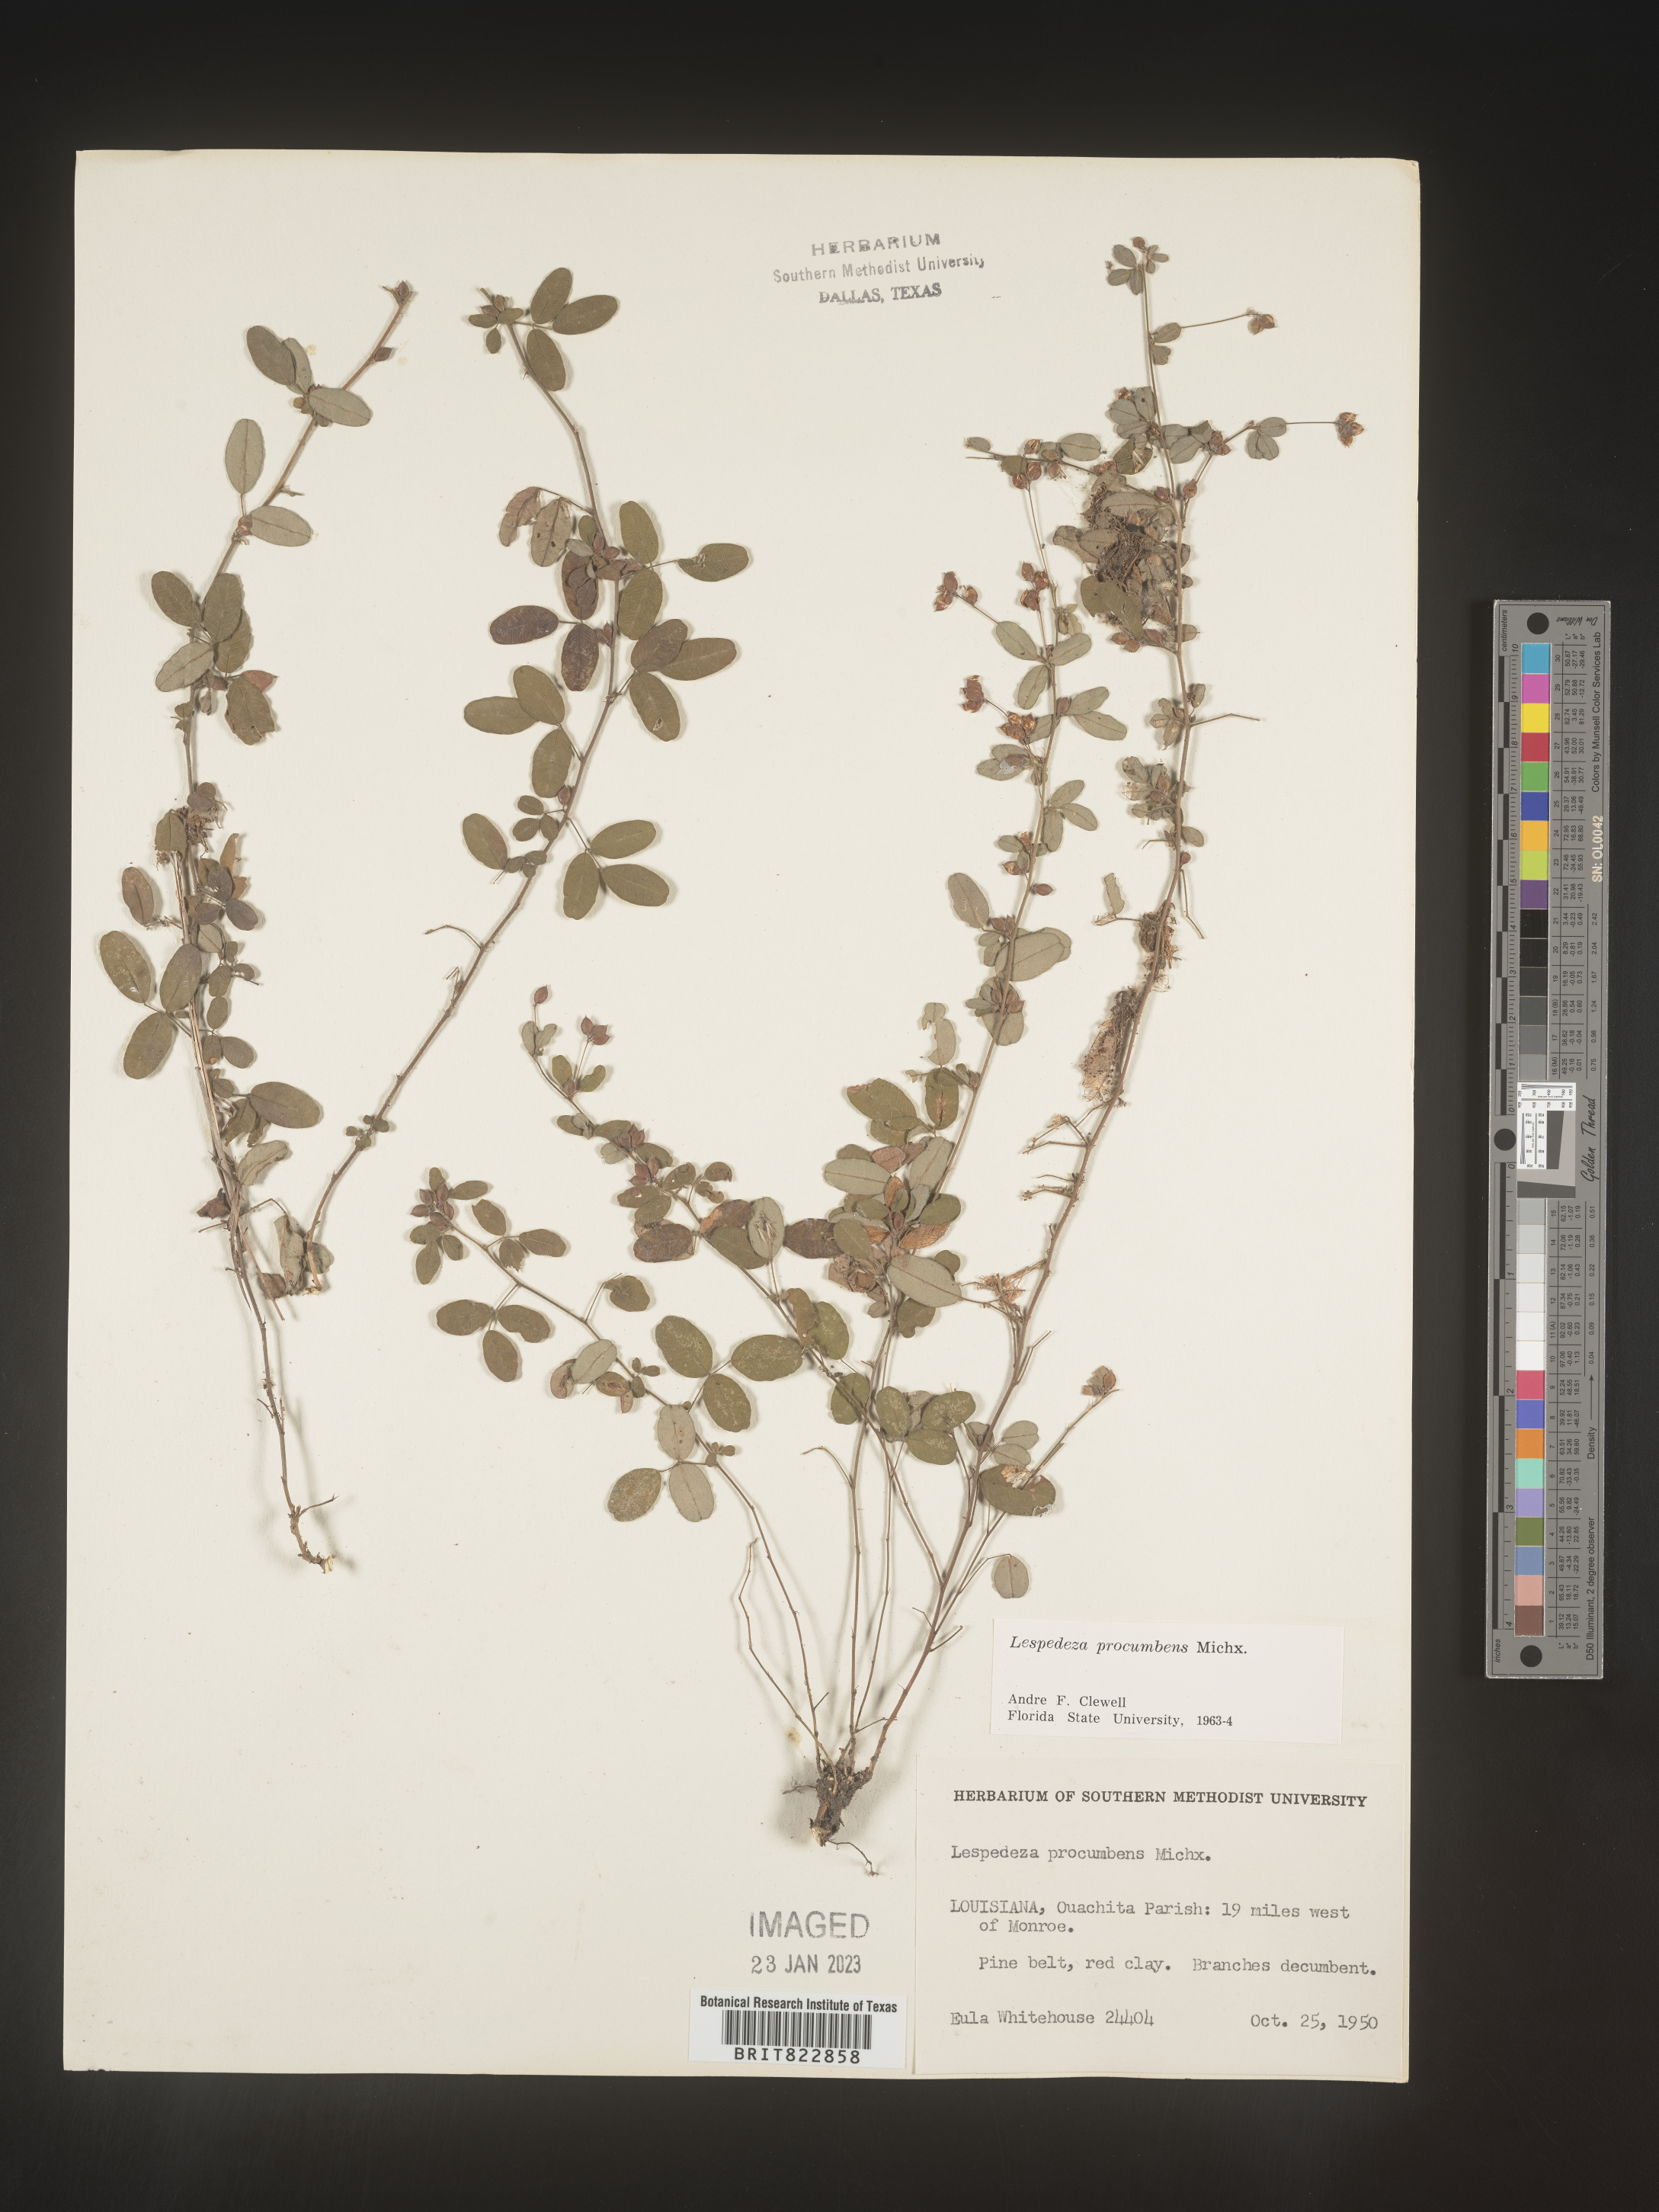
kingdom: Plantae
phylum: Tracheophyta
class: Magnoliopsida
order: Fabales
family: Fabaceae
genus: Lespedeza
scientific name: Lespedeza procumbens
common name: Downy trailing bush-clover
